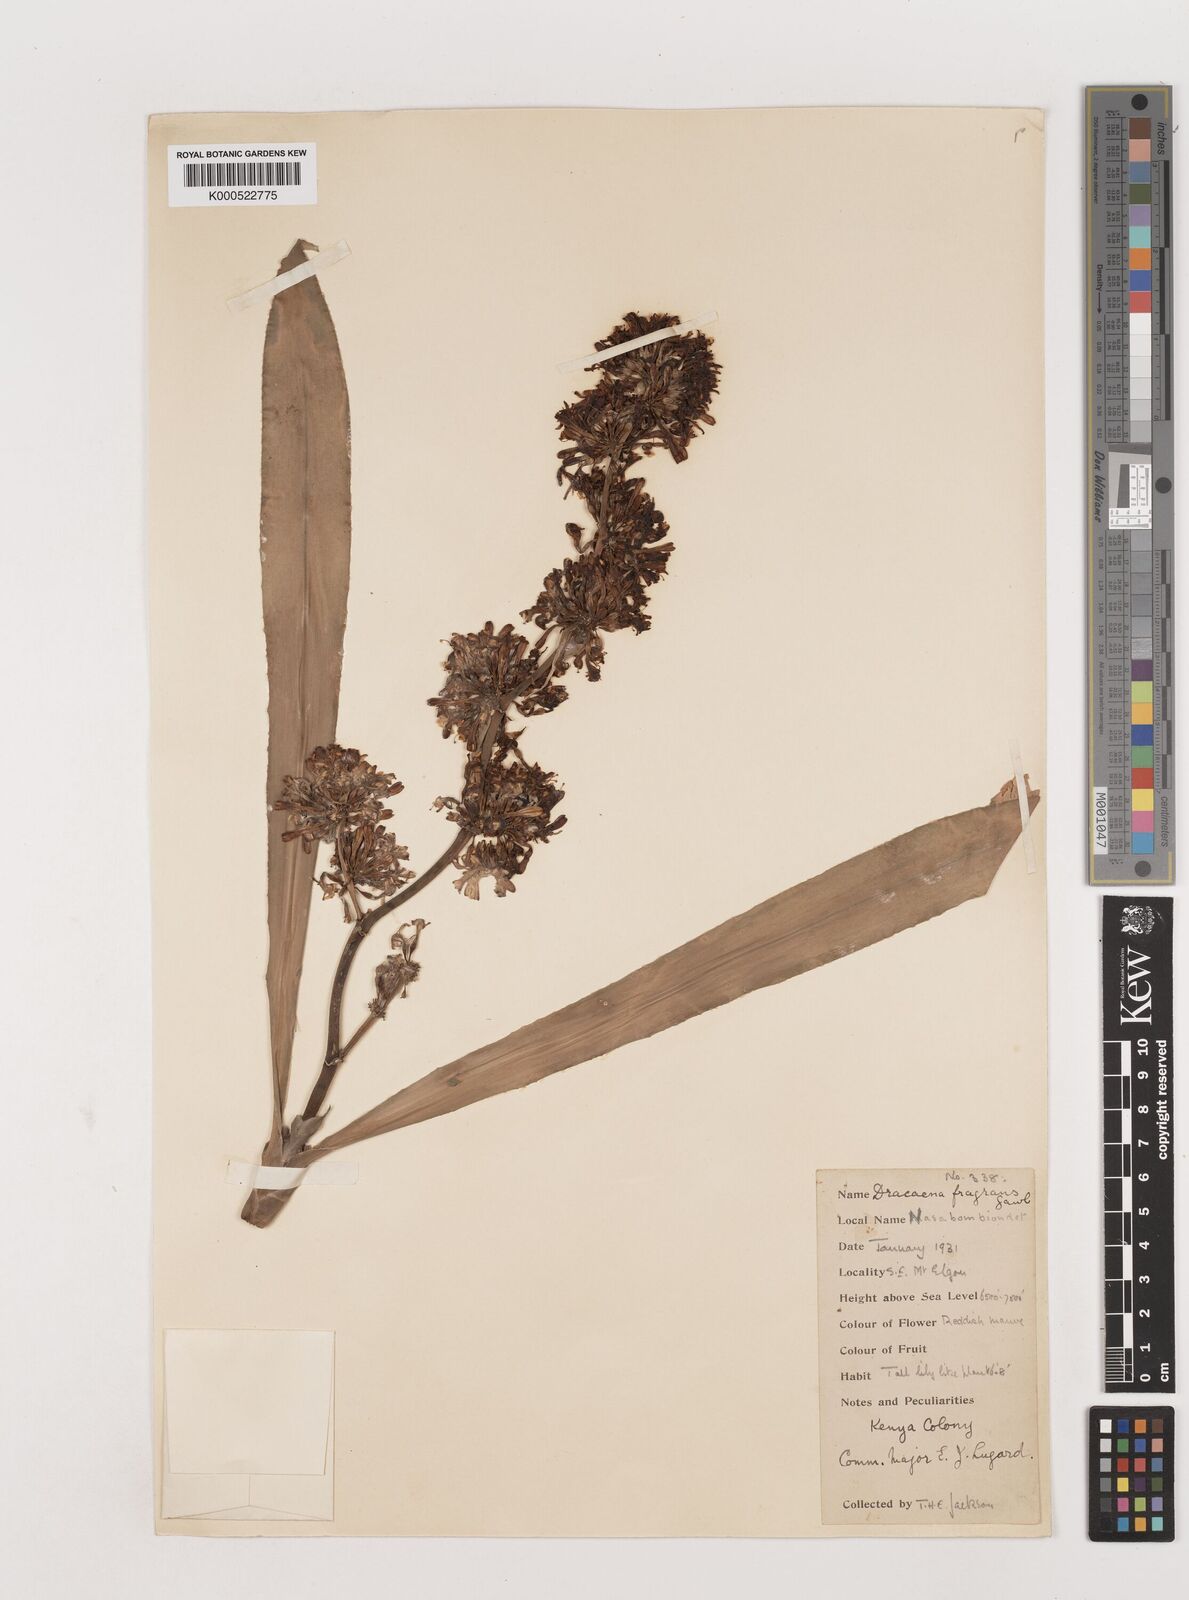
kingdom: Plantae
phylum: Tracheophyta
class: Liliopsida
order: Asparagales
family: Asparagaceae
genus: Dracaena
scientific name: Dracaena fragrans
